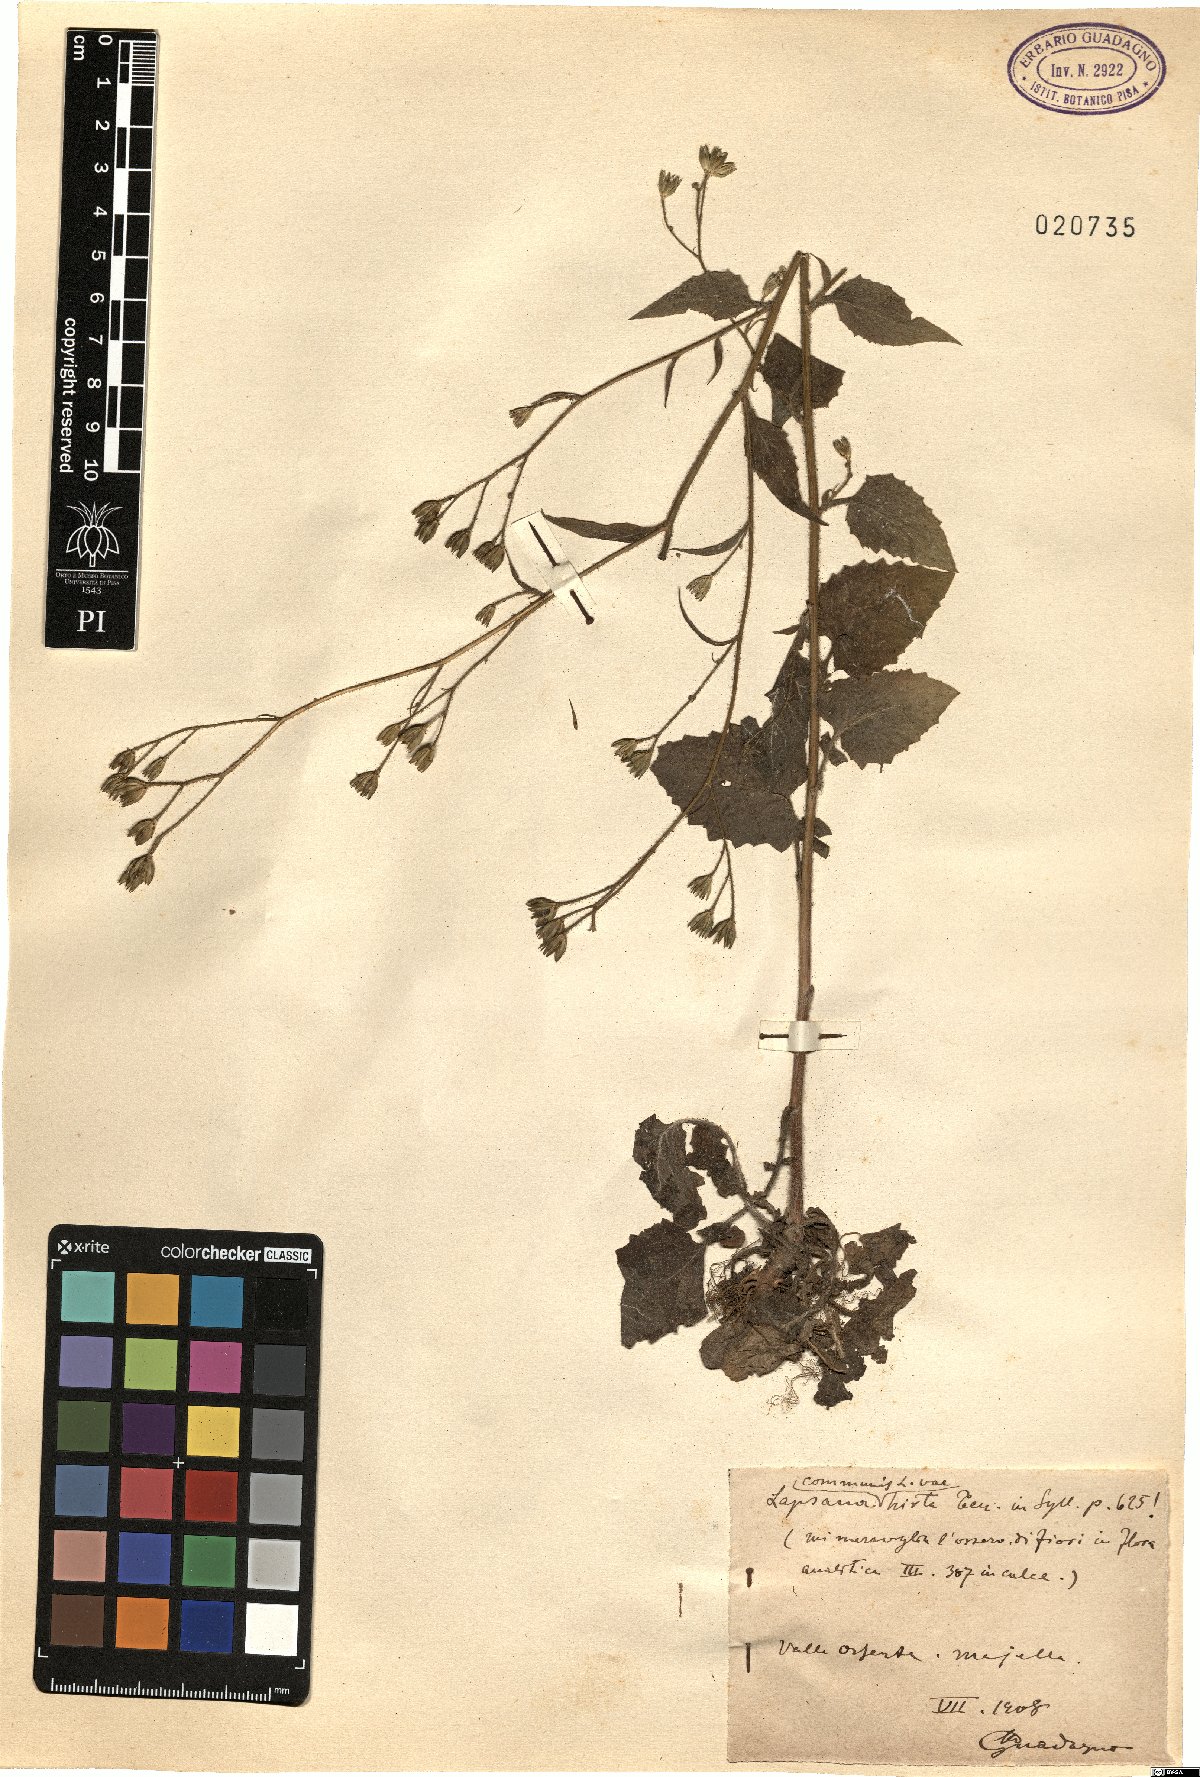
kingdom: Plantae
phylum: Tracheophyta
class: Magnoliopsida
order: Asterales
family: Asteraceae
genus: Lapsana
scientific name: Lapsana communis
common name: Nipplewort
